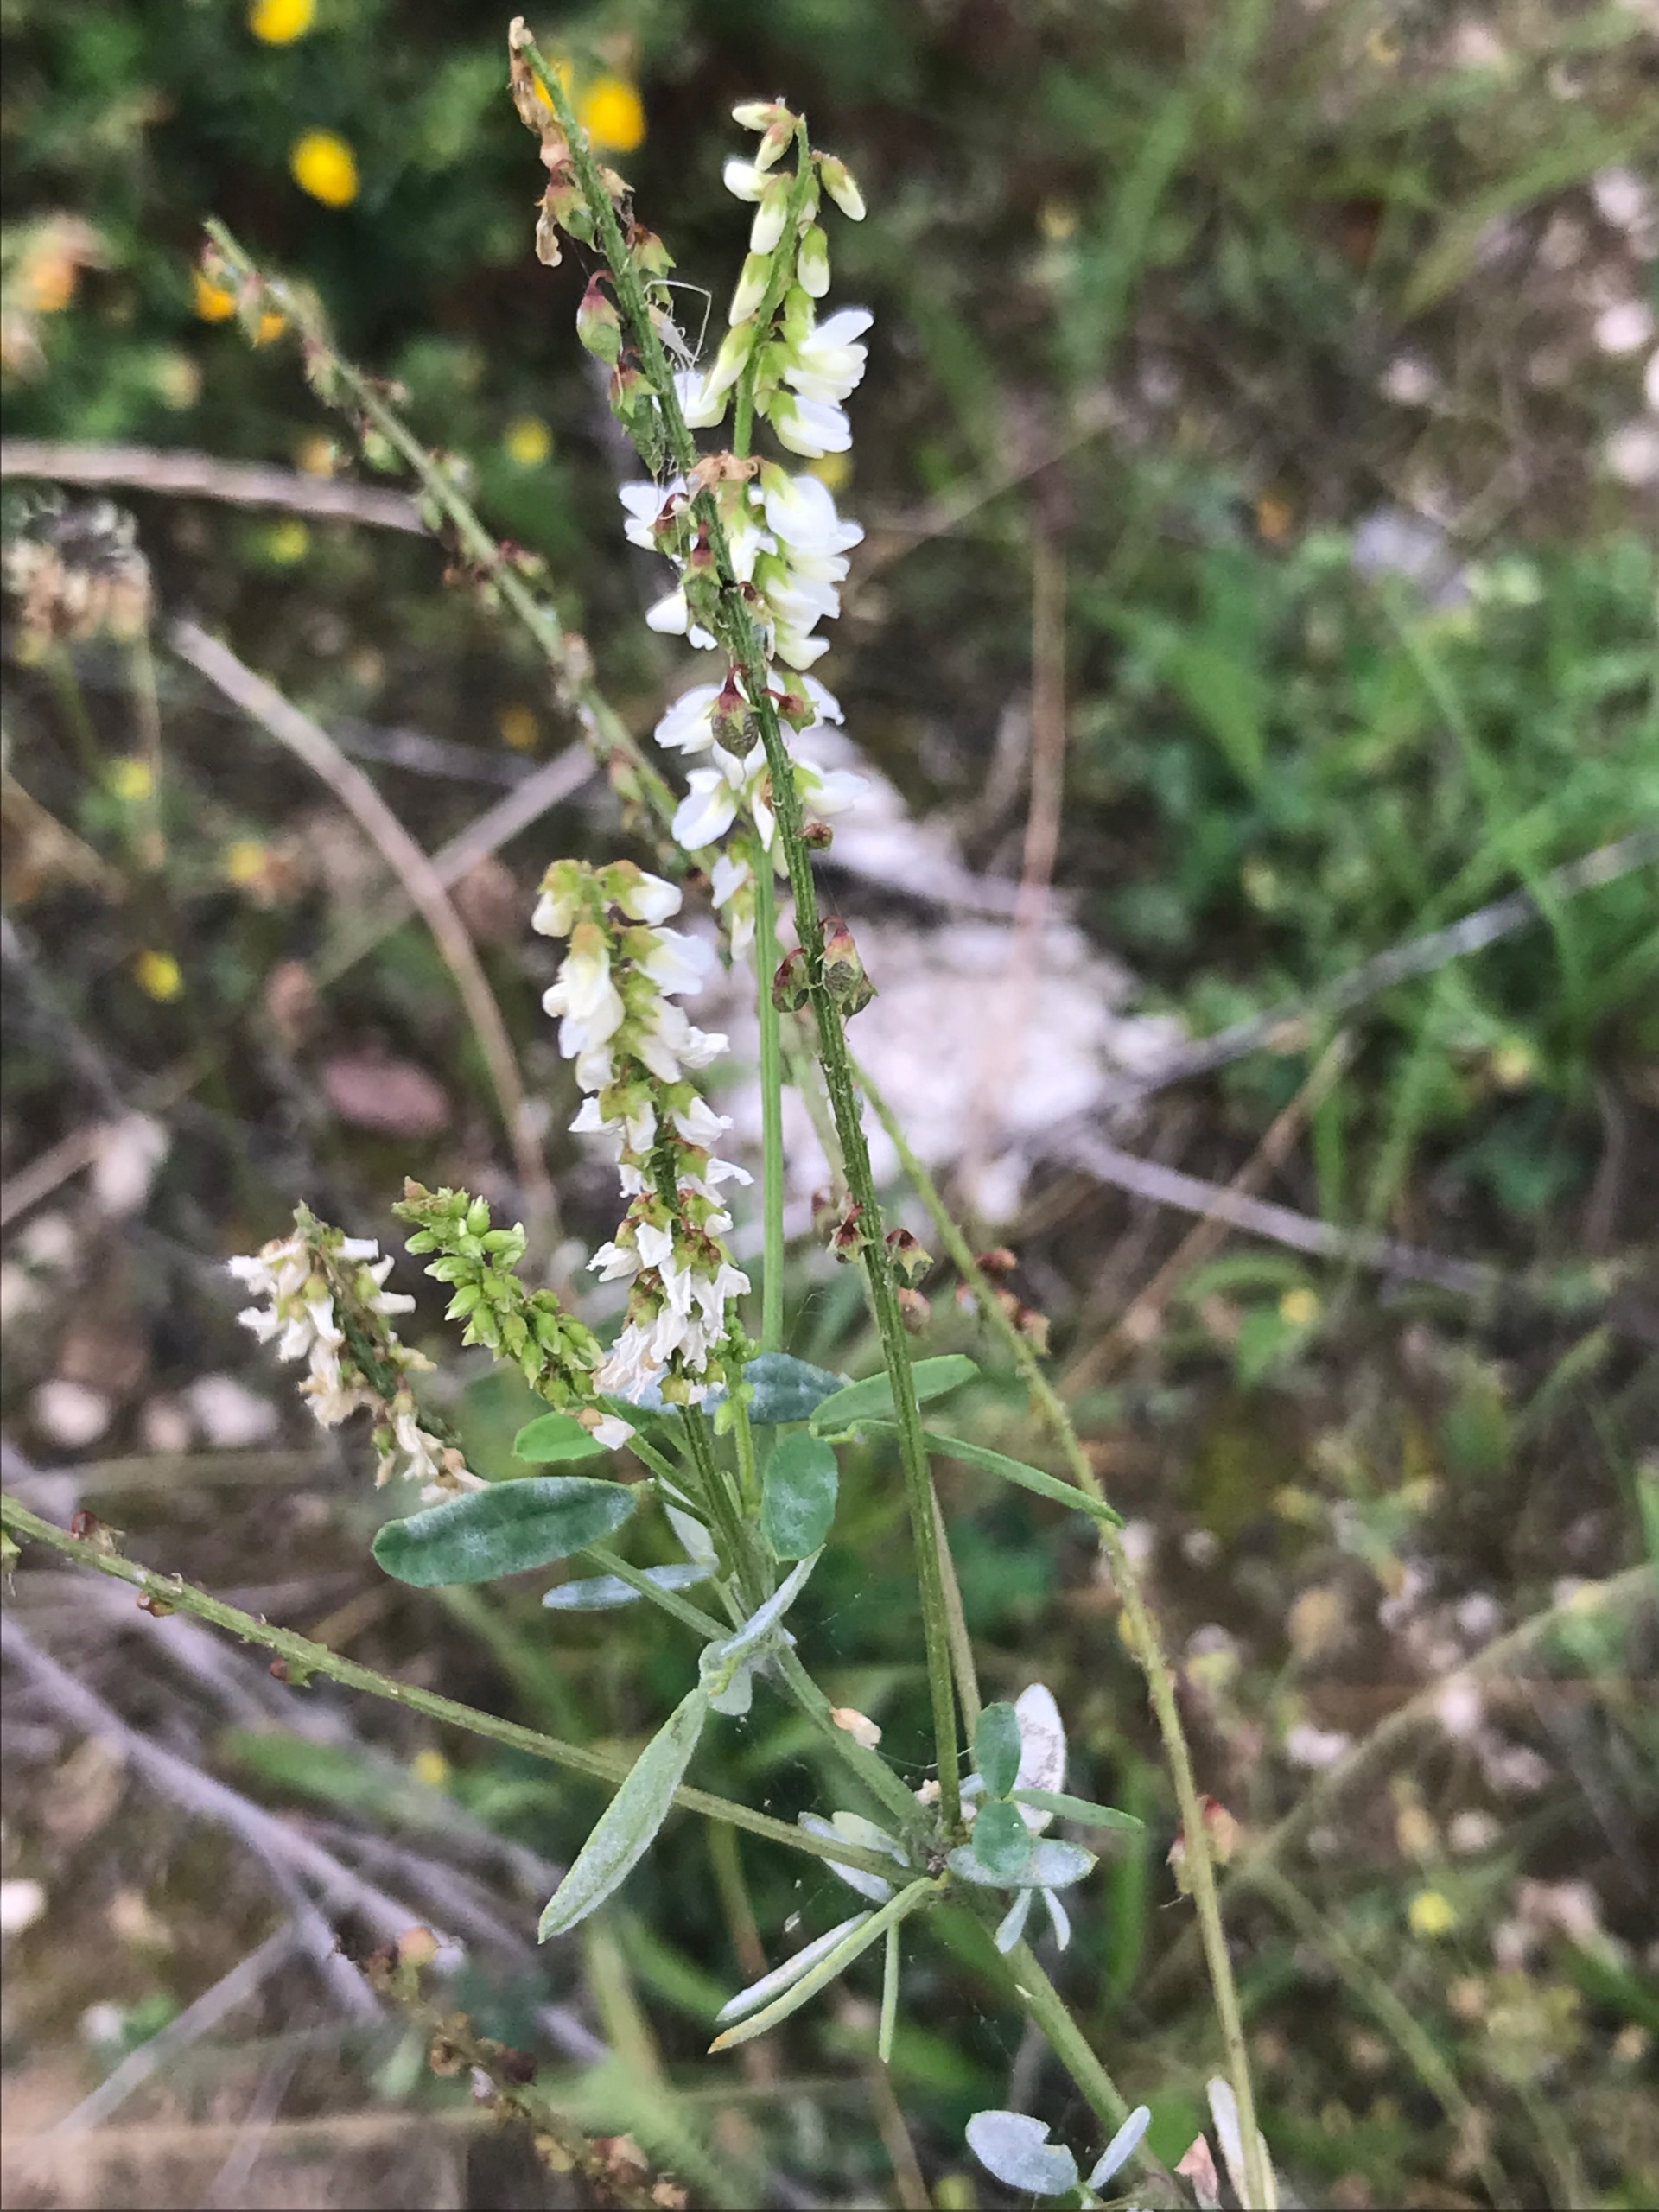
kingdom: Plantae
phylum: Tracheophyta
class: Magnoliopsida
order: Fabales
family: Fabaceae
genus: Melilotus
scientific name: Melilotus albus
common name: Hvid stenkløver
